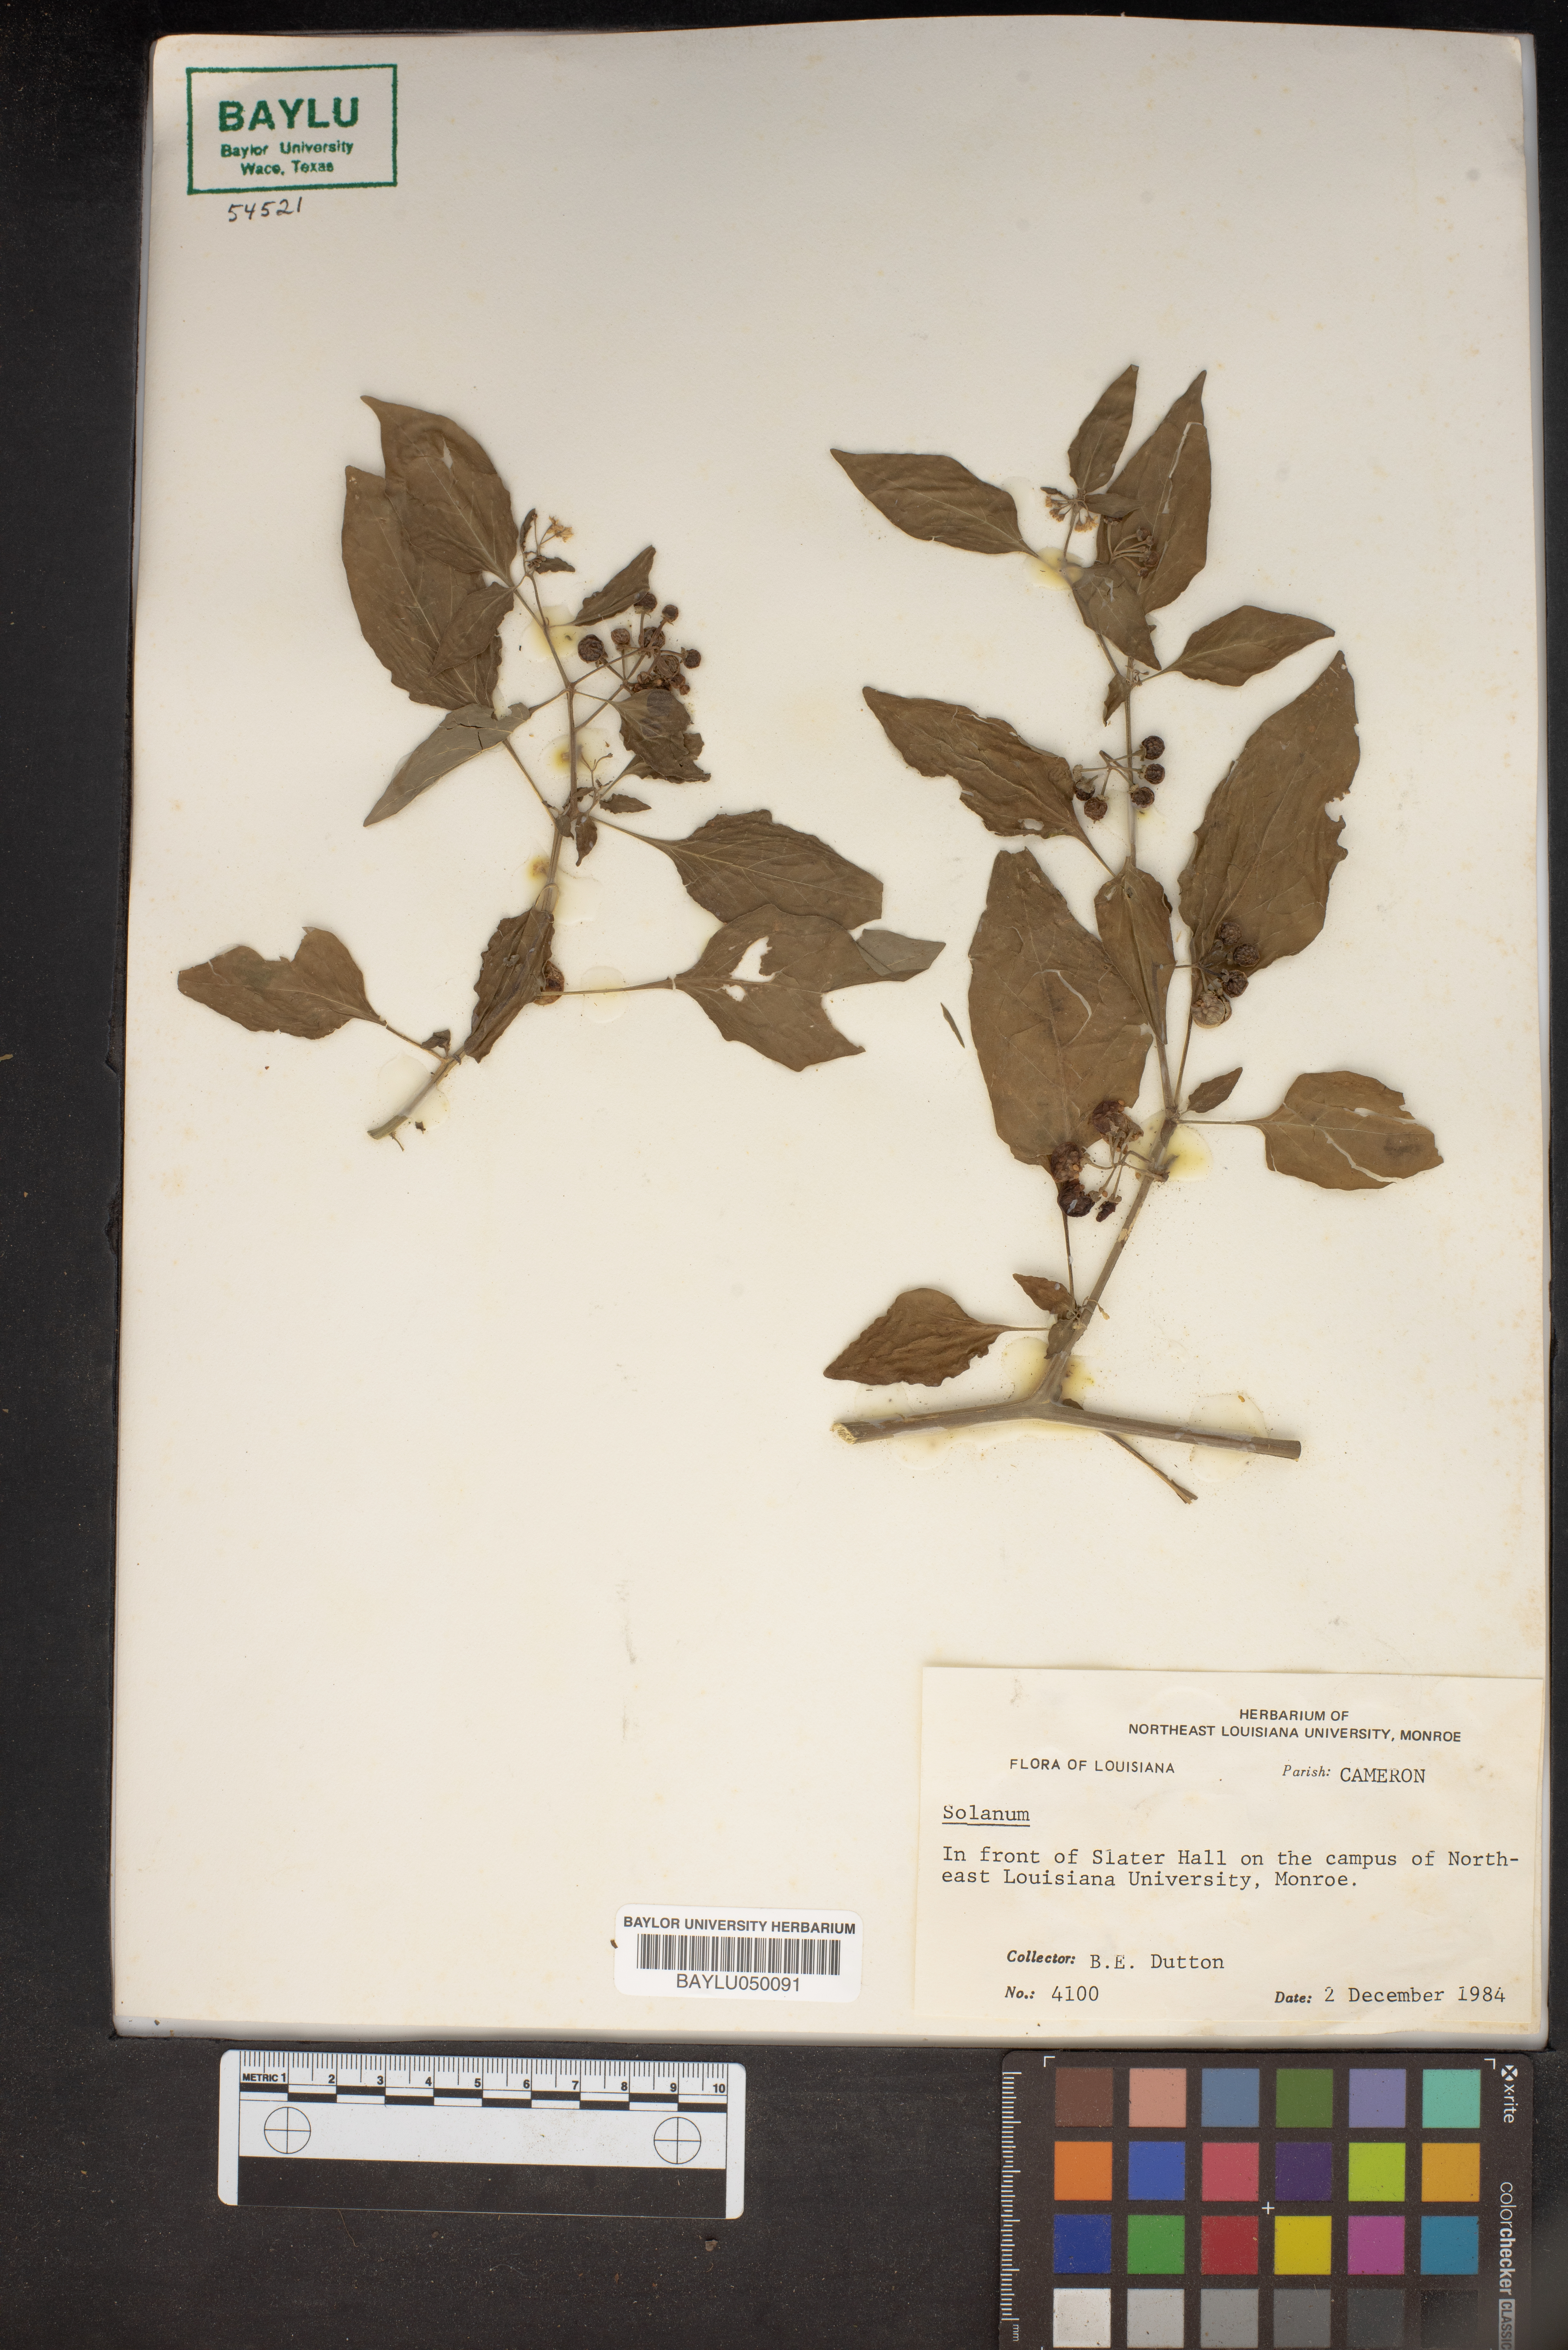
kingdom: Plantae
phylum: Tracheophyta
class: Magnoliopsida
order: Solanales
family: Solanaceae
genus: Solanum
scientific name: Solanum
